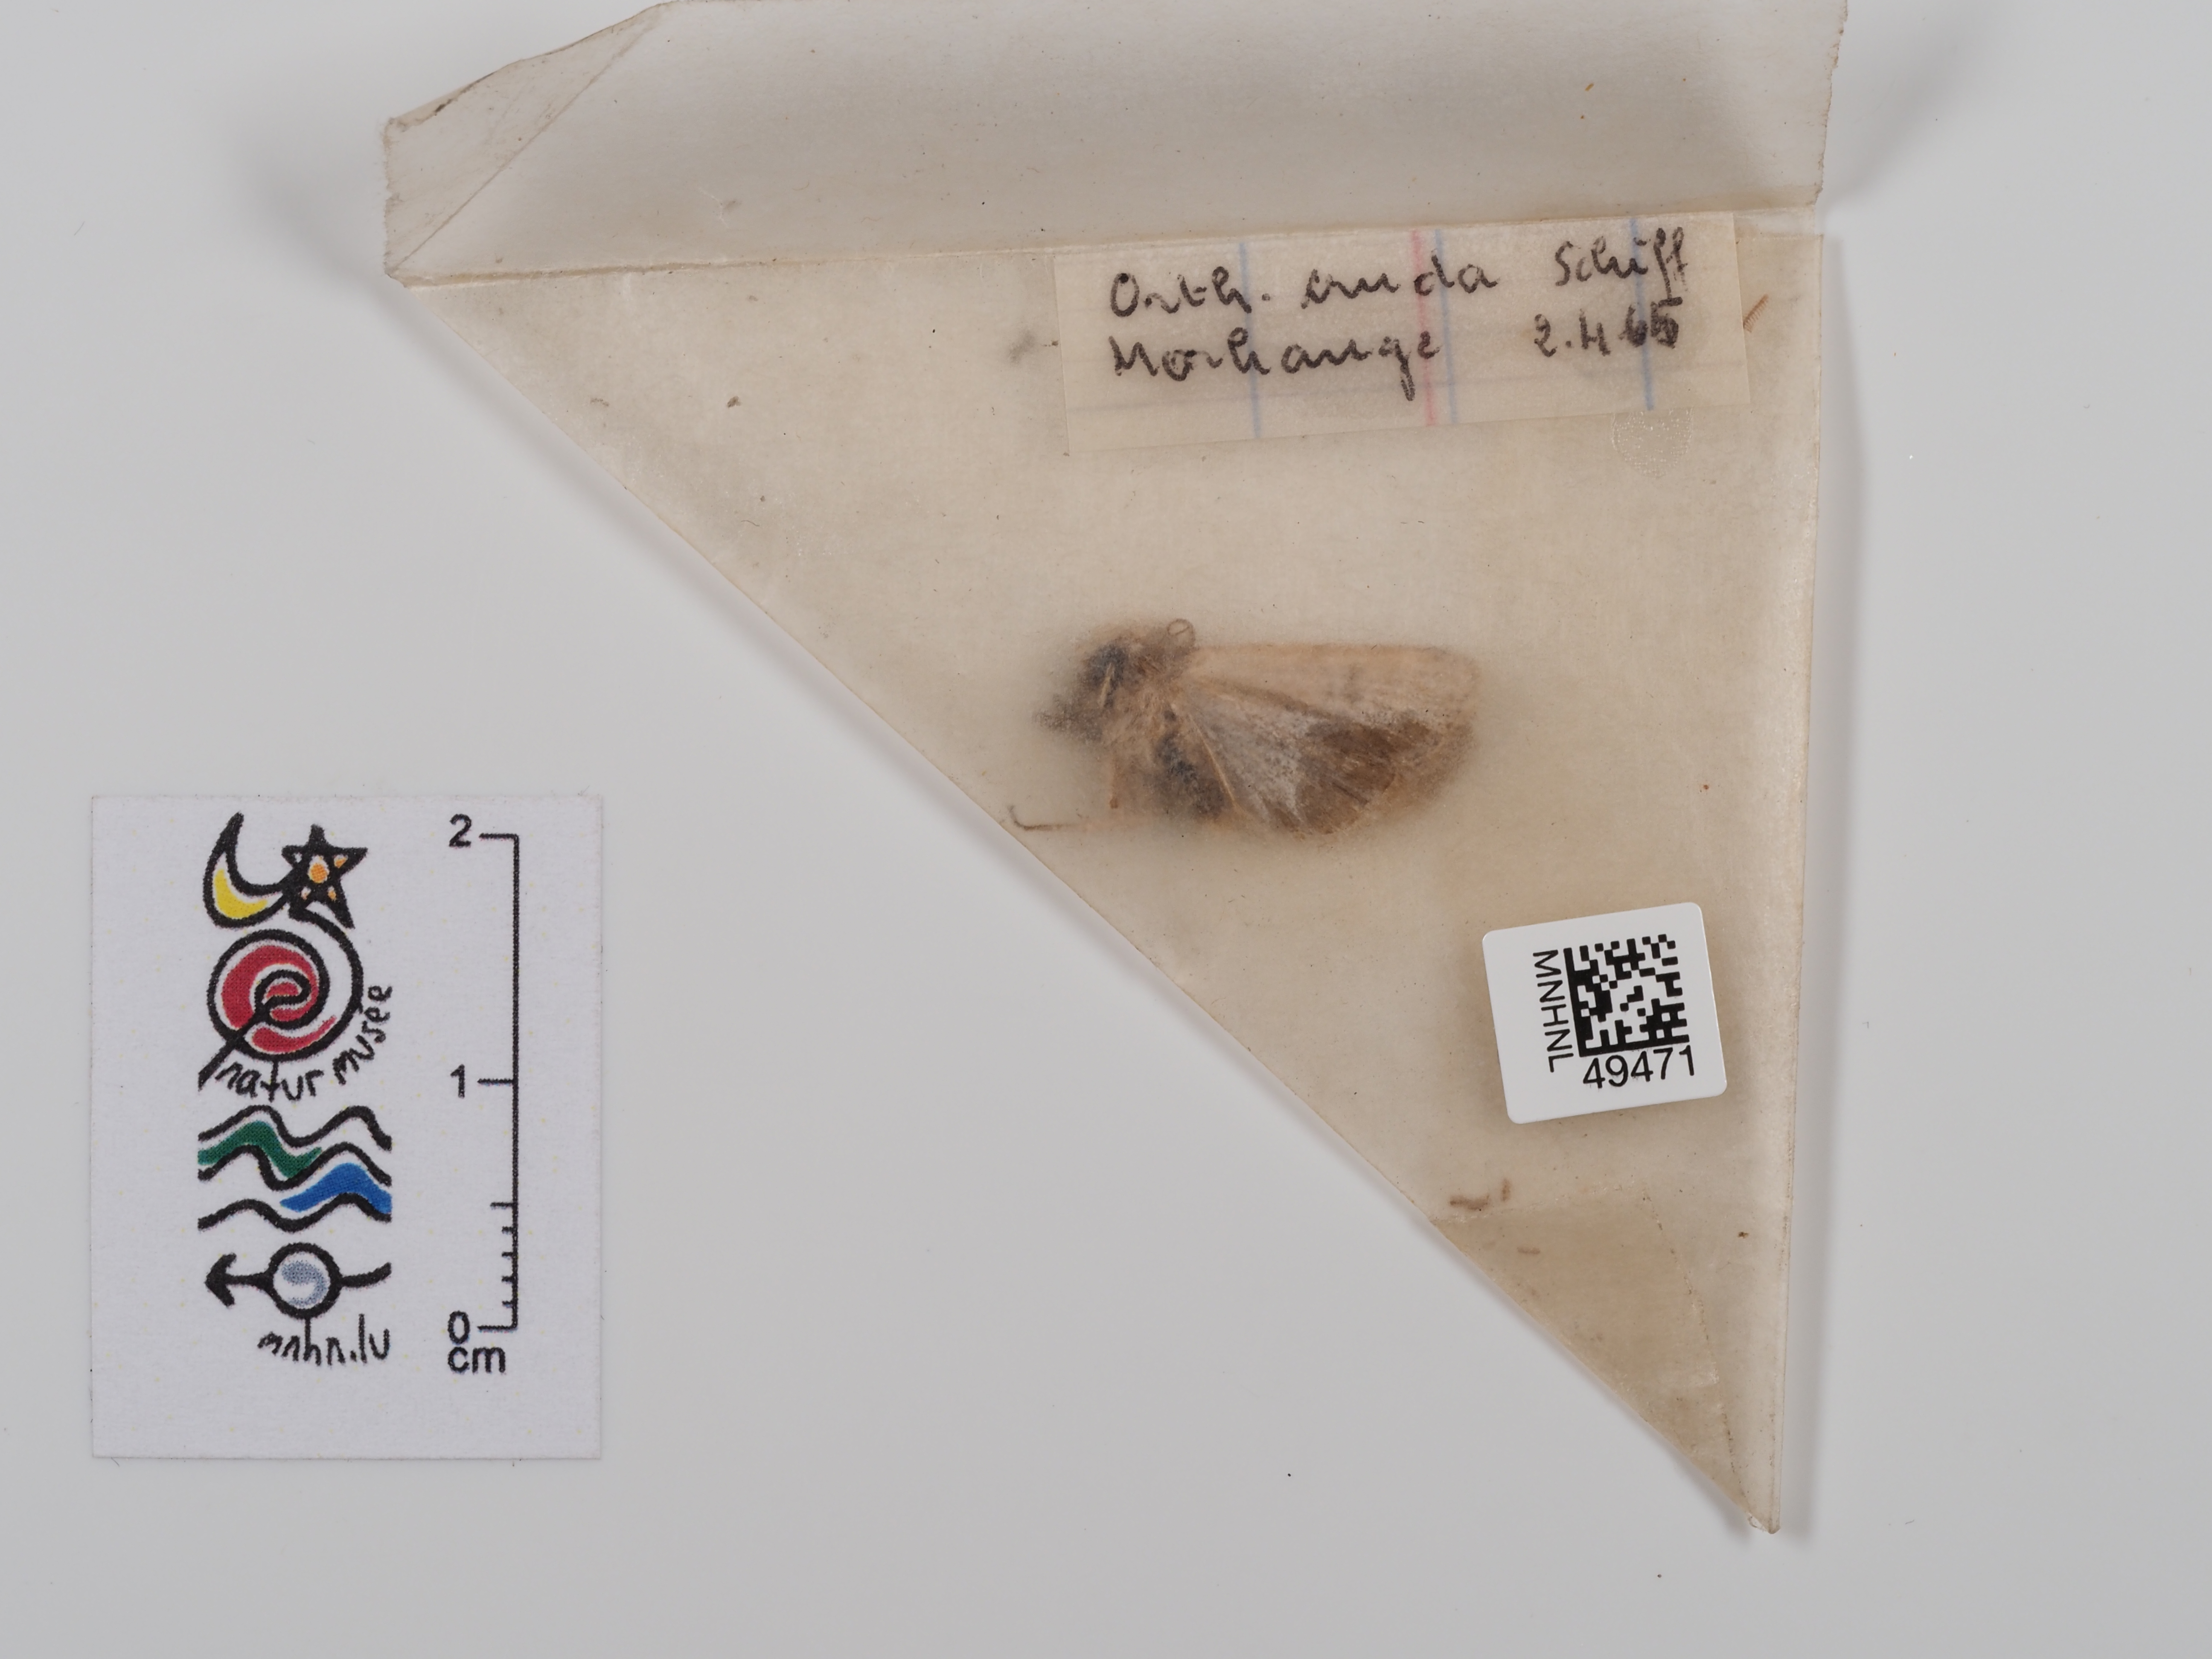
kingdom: Animalia
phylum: Arthropoda
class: Insecta
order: Lepidoptera
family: Noctuidae
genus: Orthosia
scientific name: Orthosia cruda
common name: Small quaker
